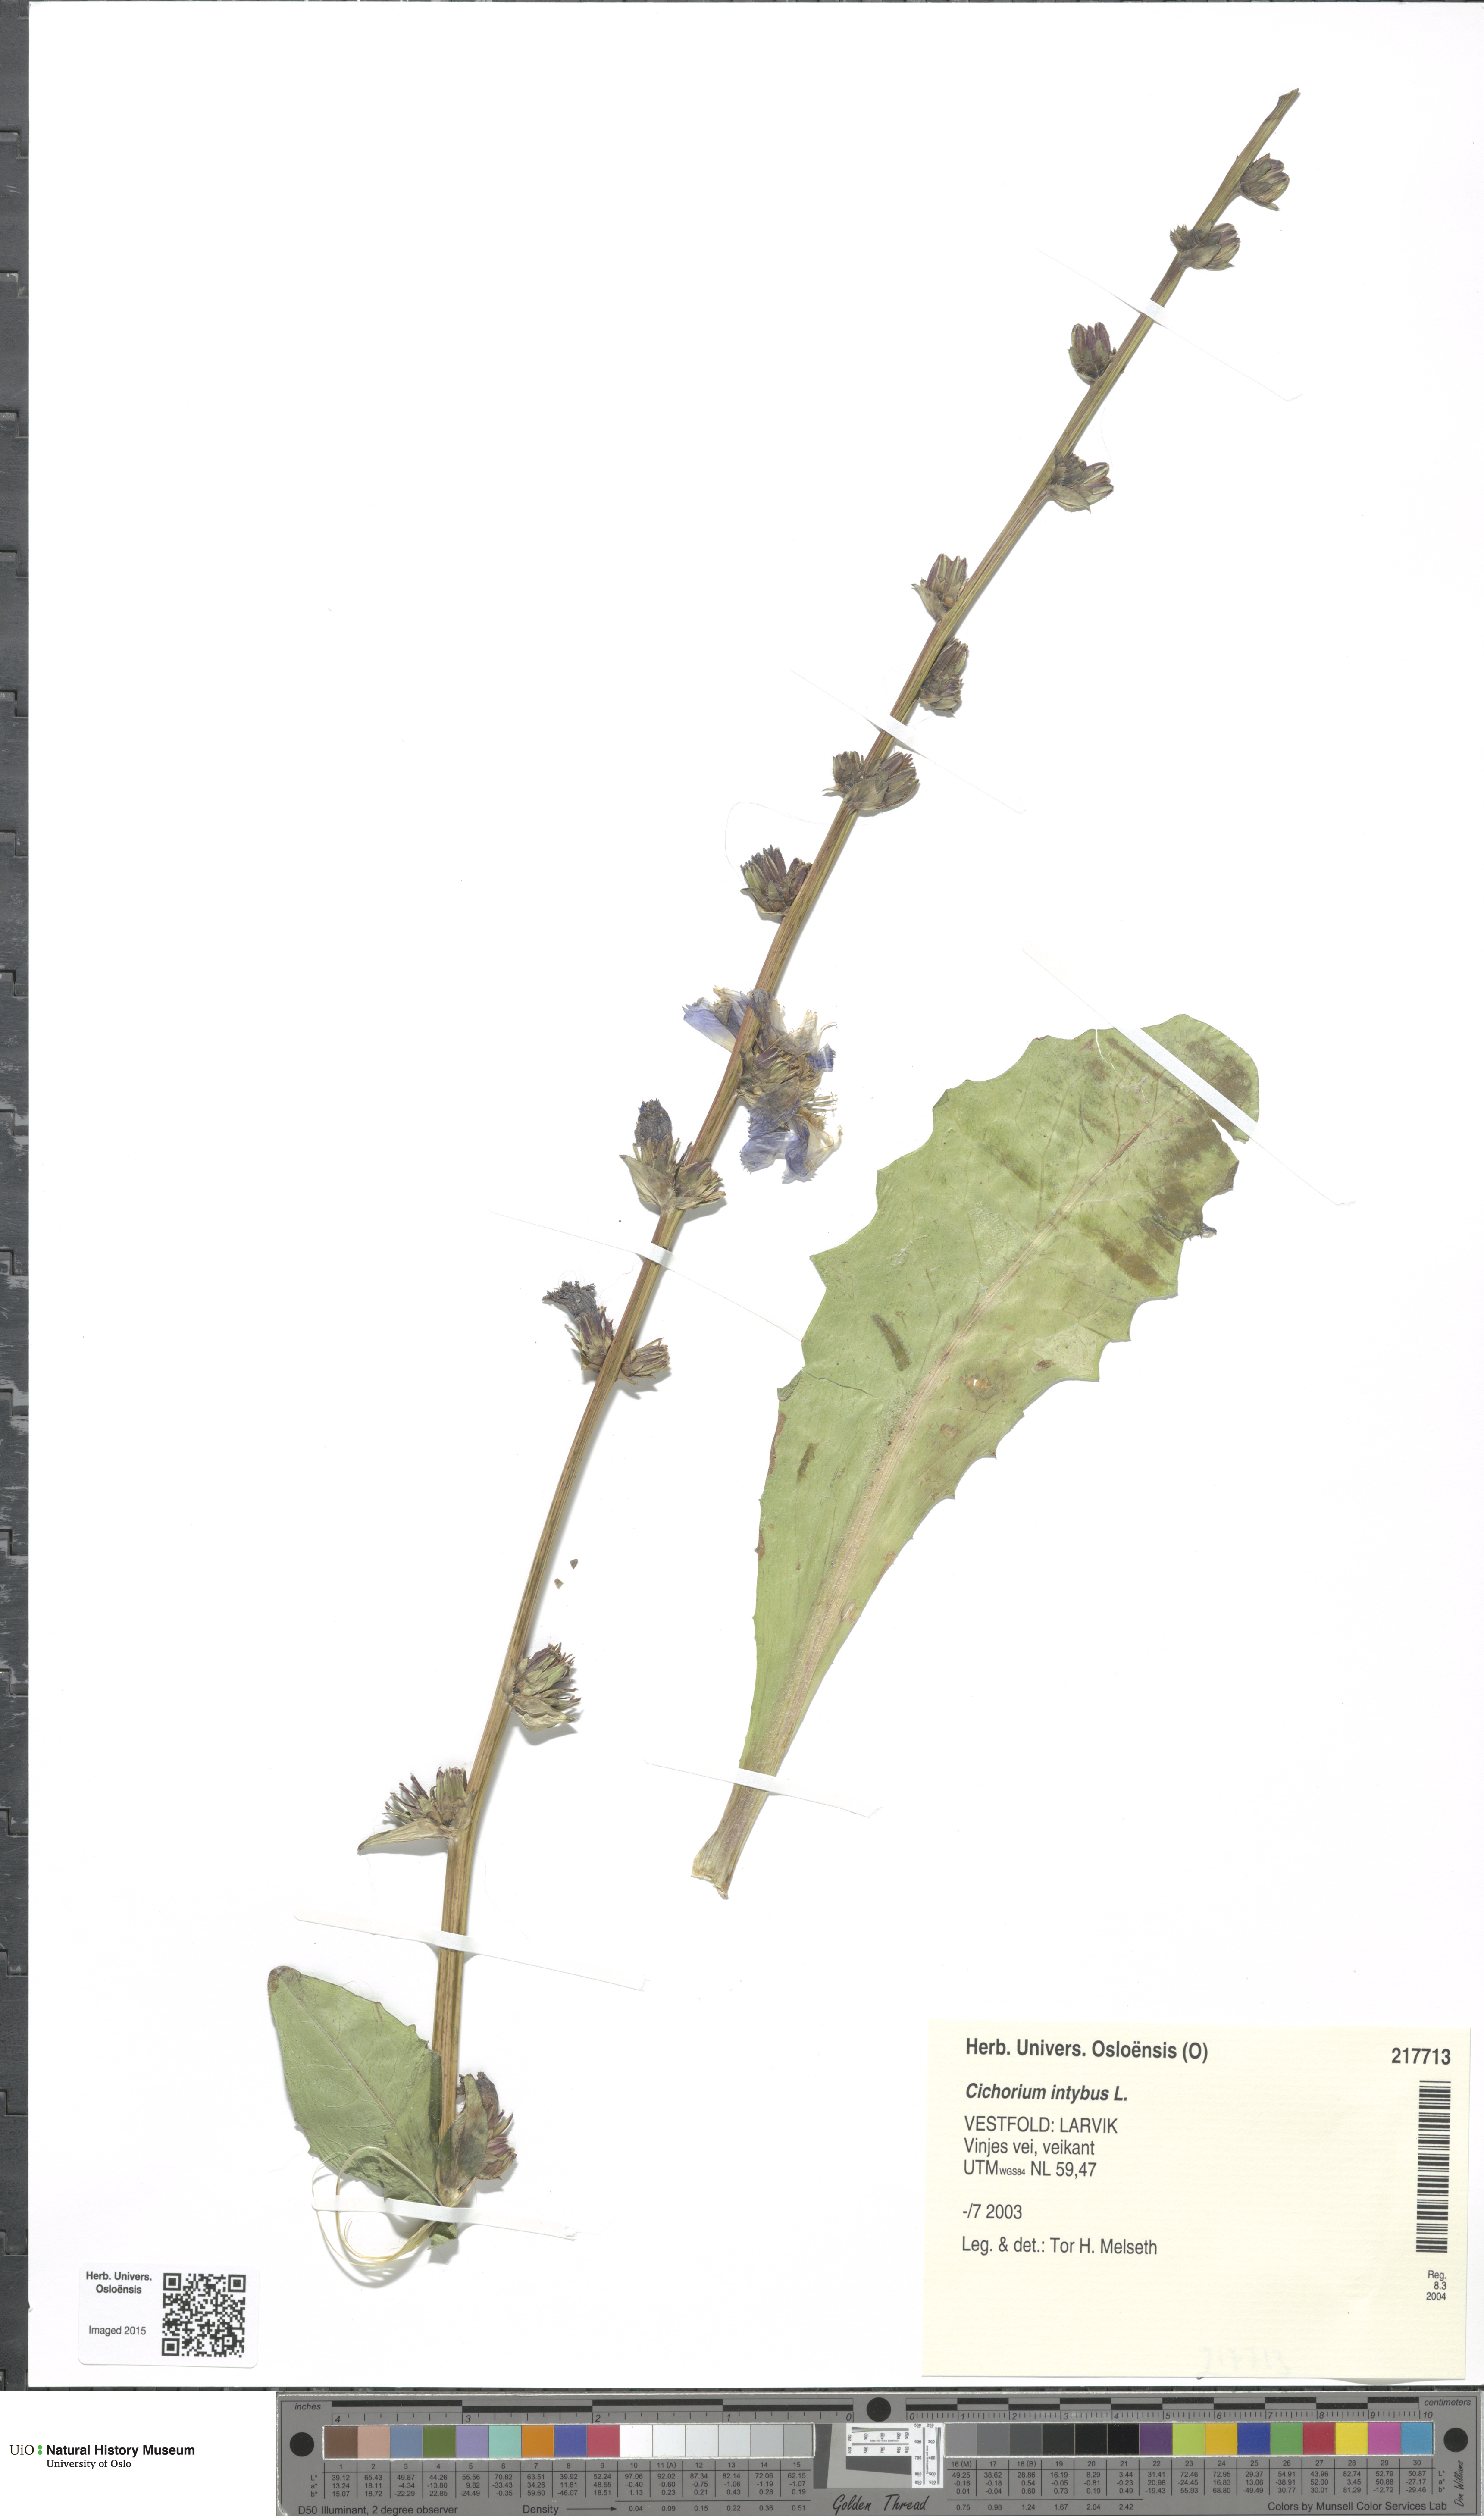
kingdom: Plantae
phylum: Tracheophyta
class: Magnoliopsida
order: Asterales
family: Asteraceae
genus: Cichorium
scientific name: Cichorium intybus
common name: Chicory
